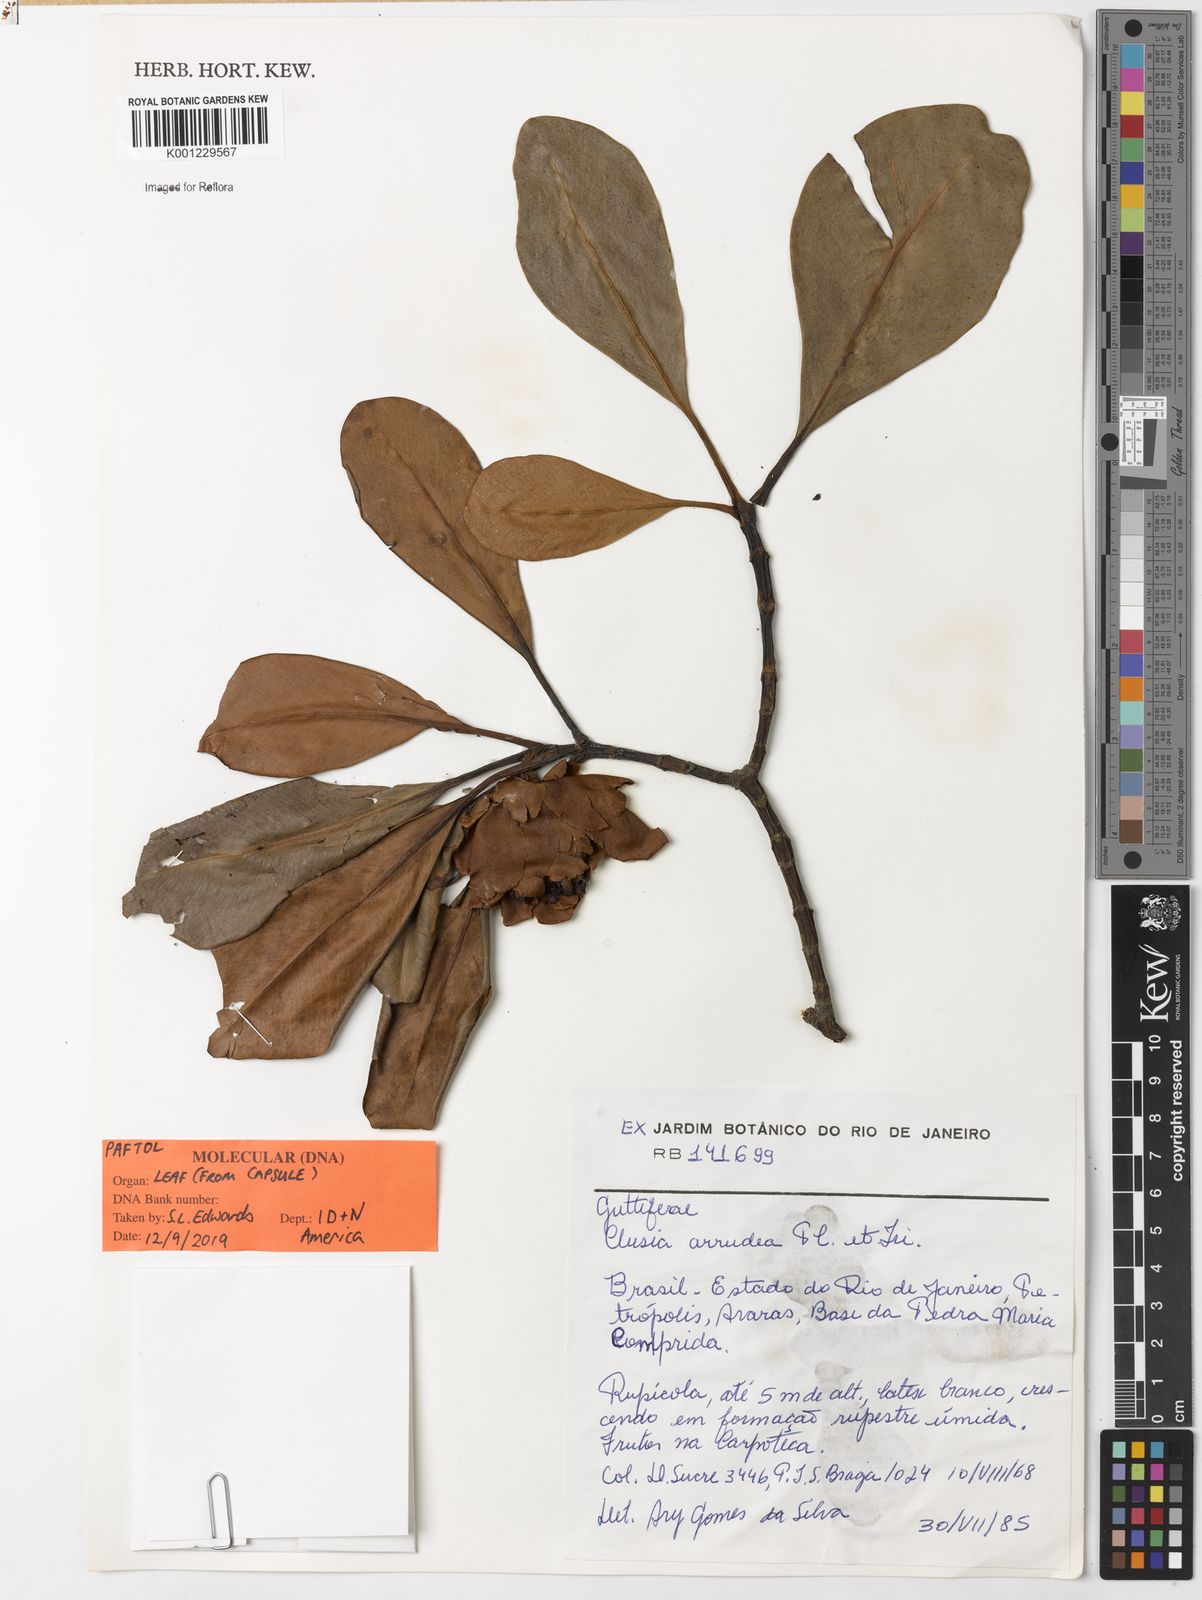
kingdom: Plantae
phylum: Tracheophyta
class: Magnoliopsida
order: Malpighiales
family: Clusiaceae
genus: Clusia
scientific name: Clusia
